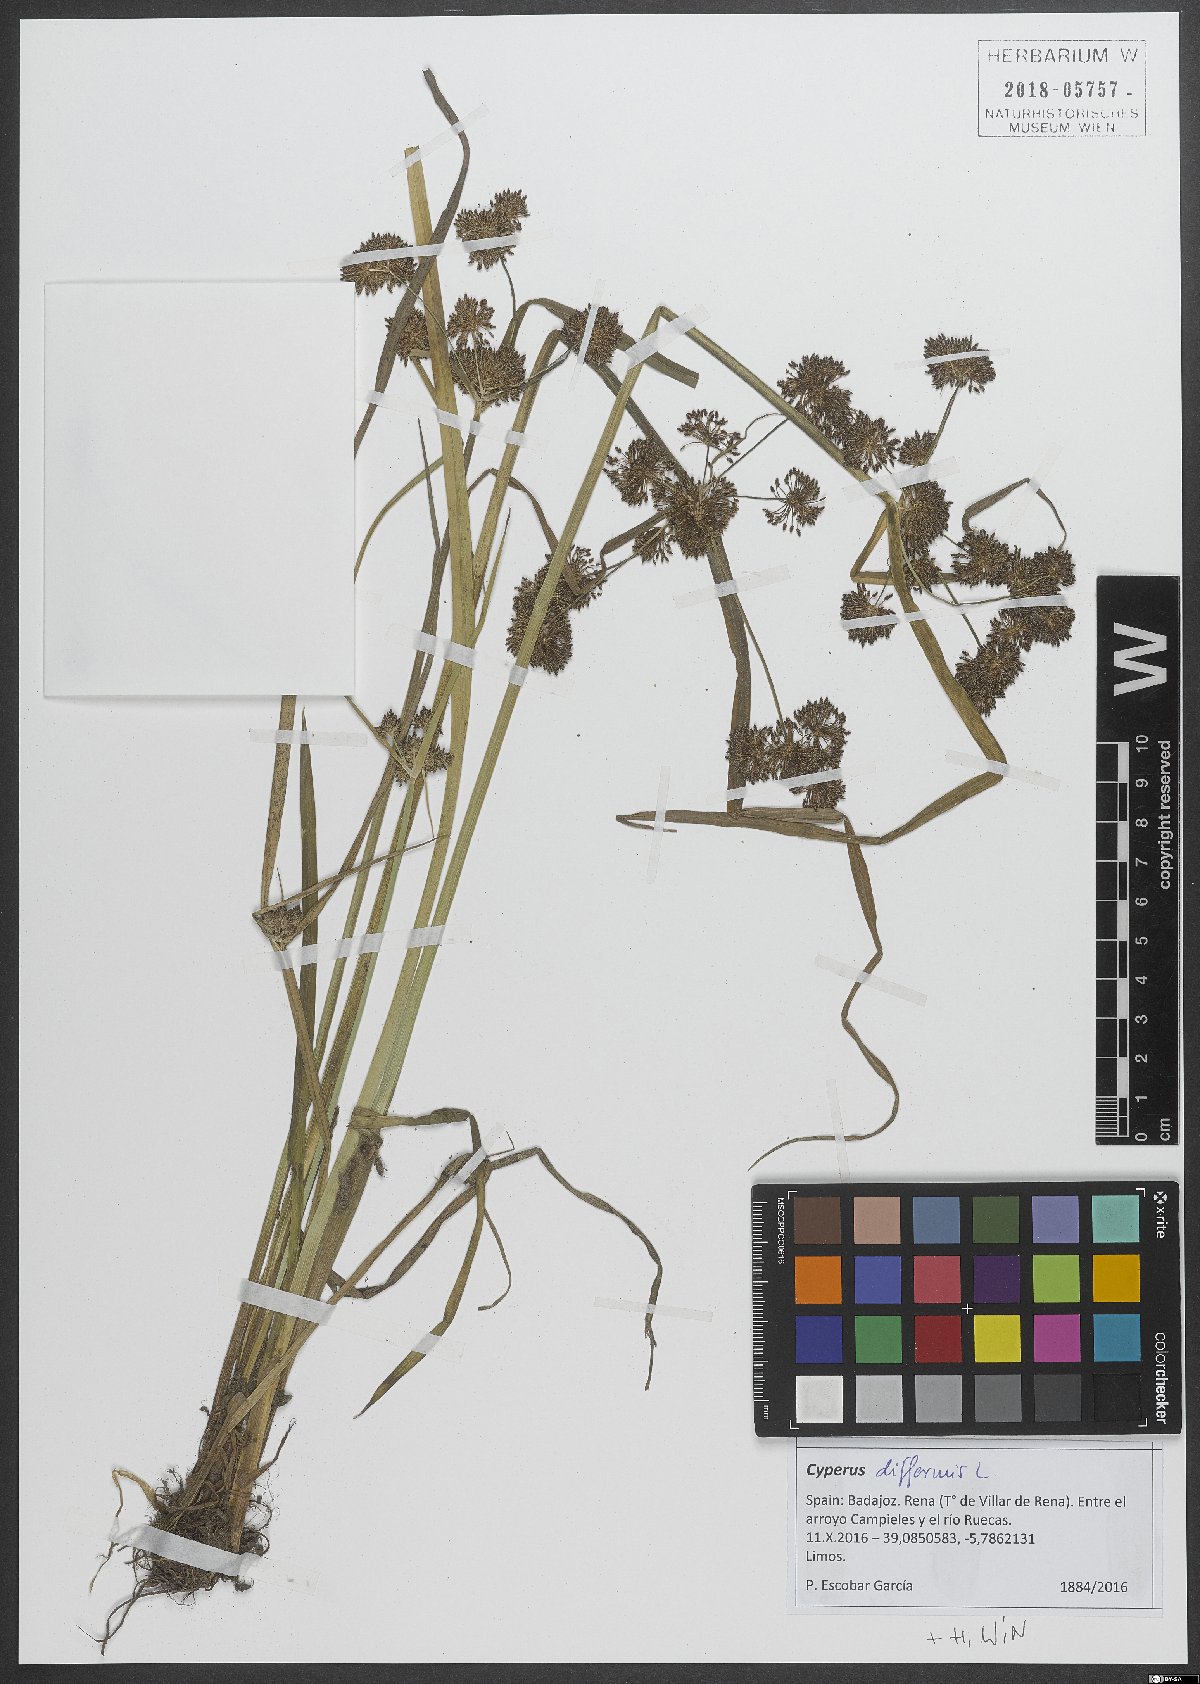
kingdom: Plantae
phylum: Tracheophyta
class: Liliopsida
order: Poales
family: Cyperaceae
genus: Cyperus
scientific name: Cyperus difformis
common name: Variable flatsedge
